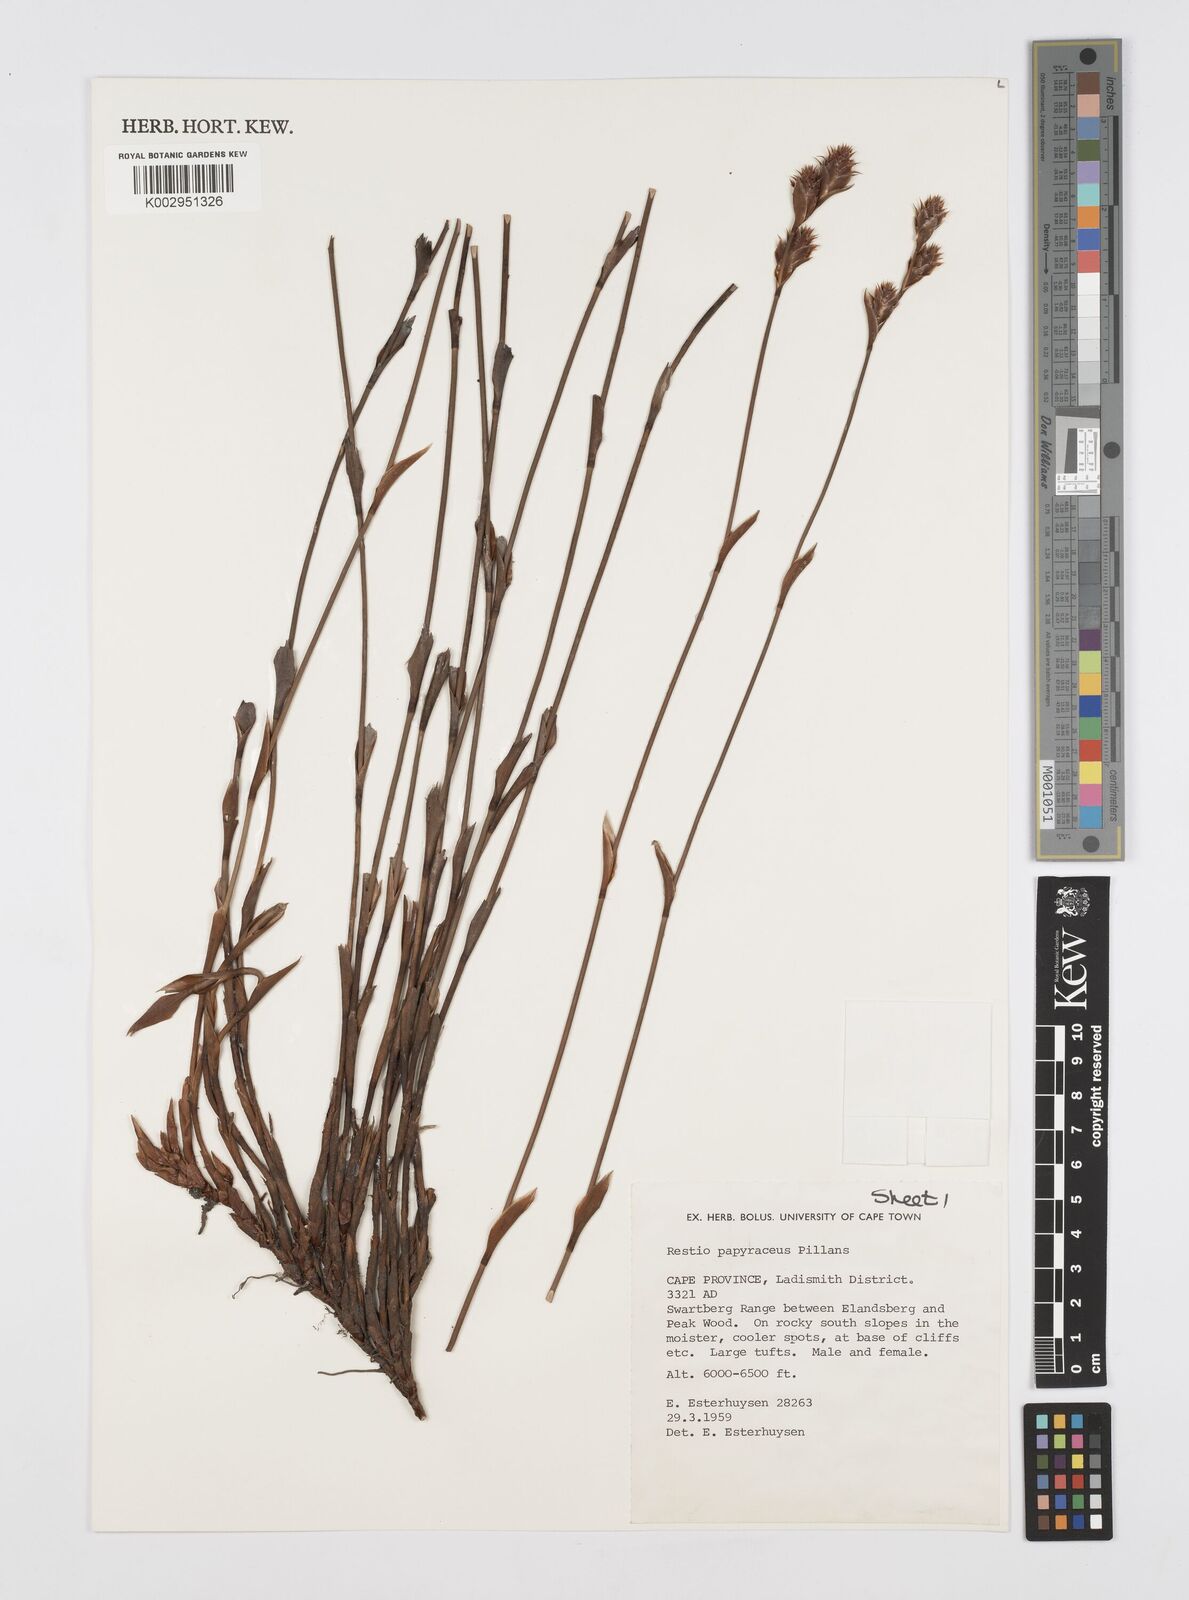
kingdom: Plantae
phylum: Tracheophyta
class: Liliopsida
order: Poales
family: Restionaceae
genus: Restio
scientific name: Restio papyraceus
